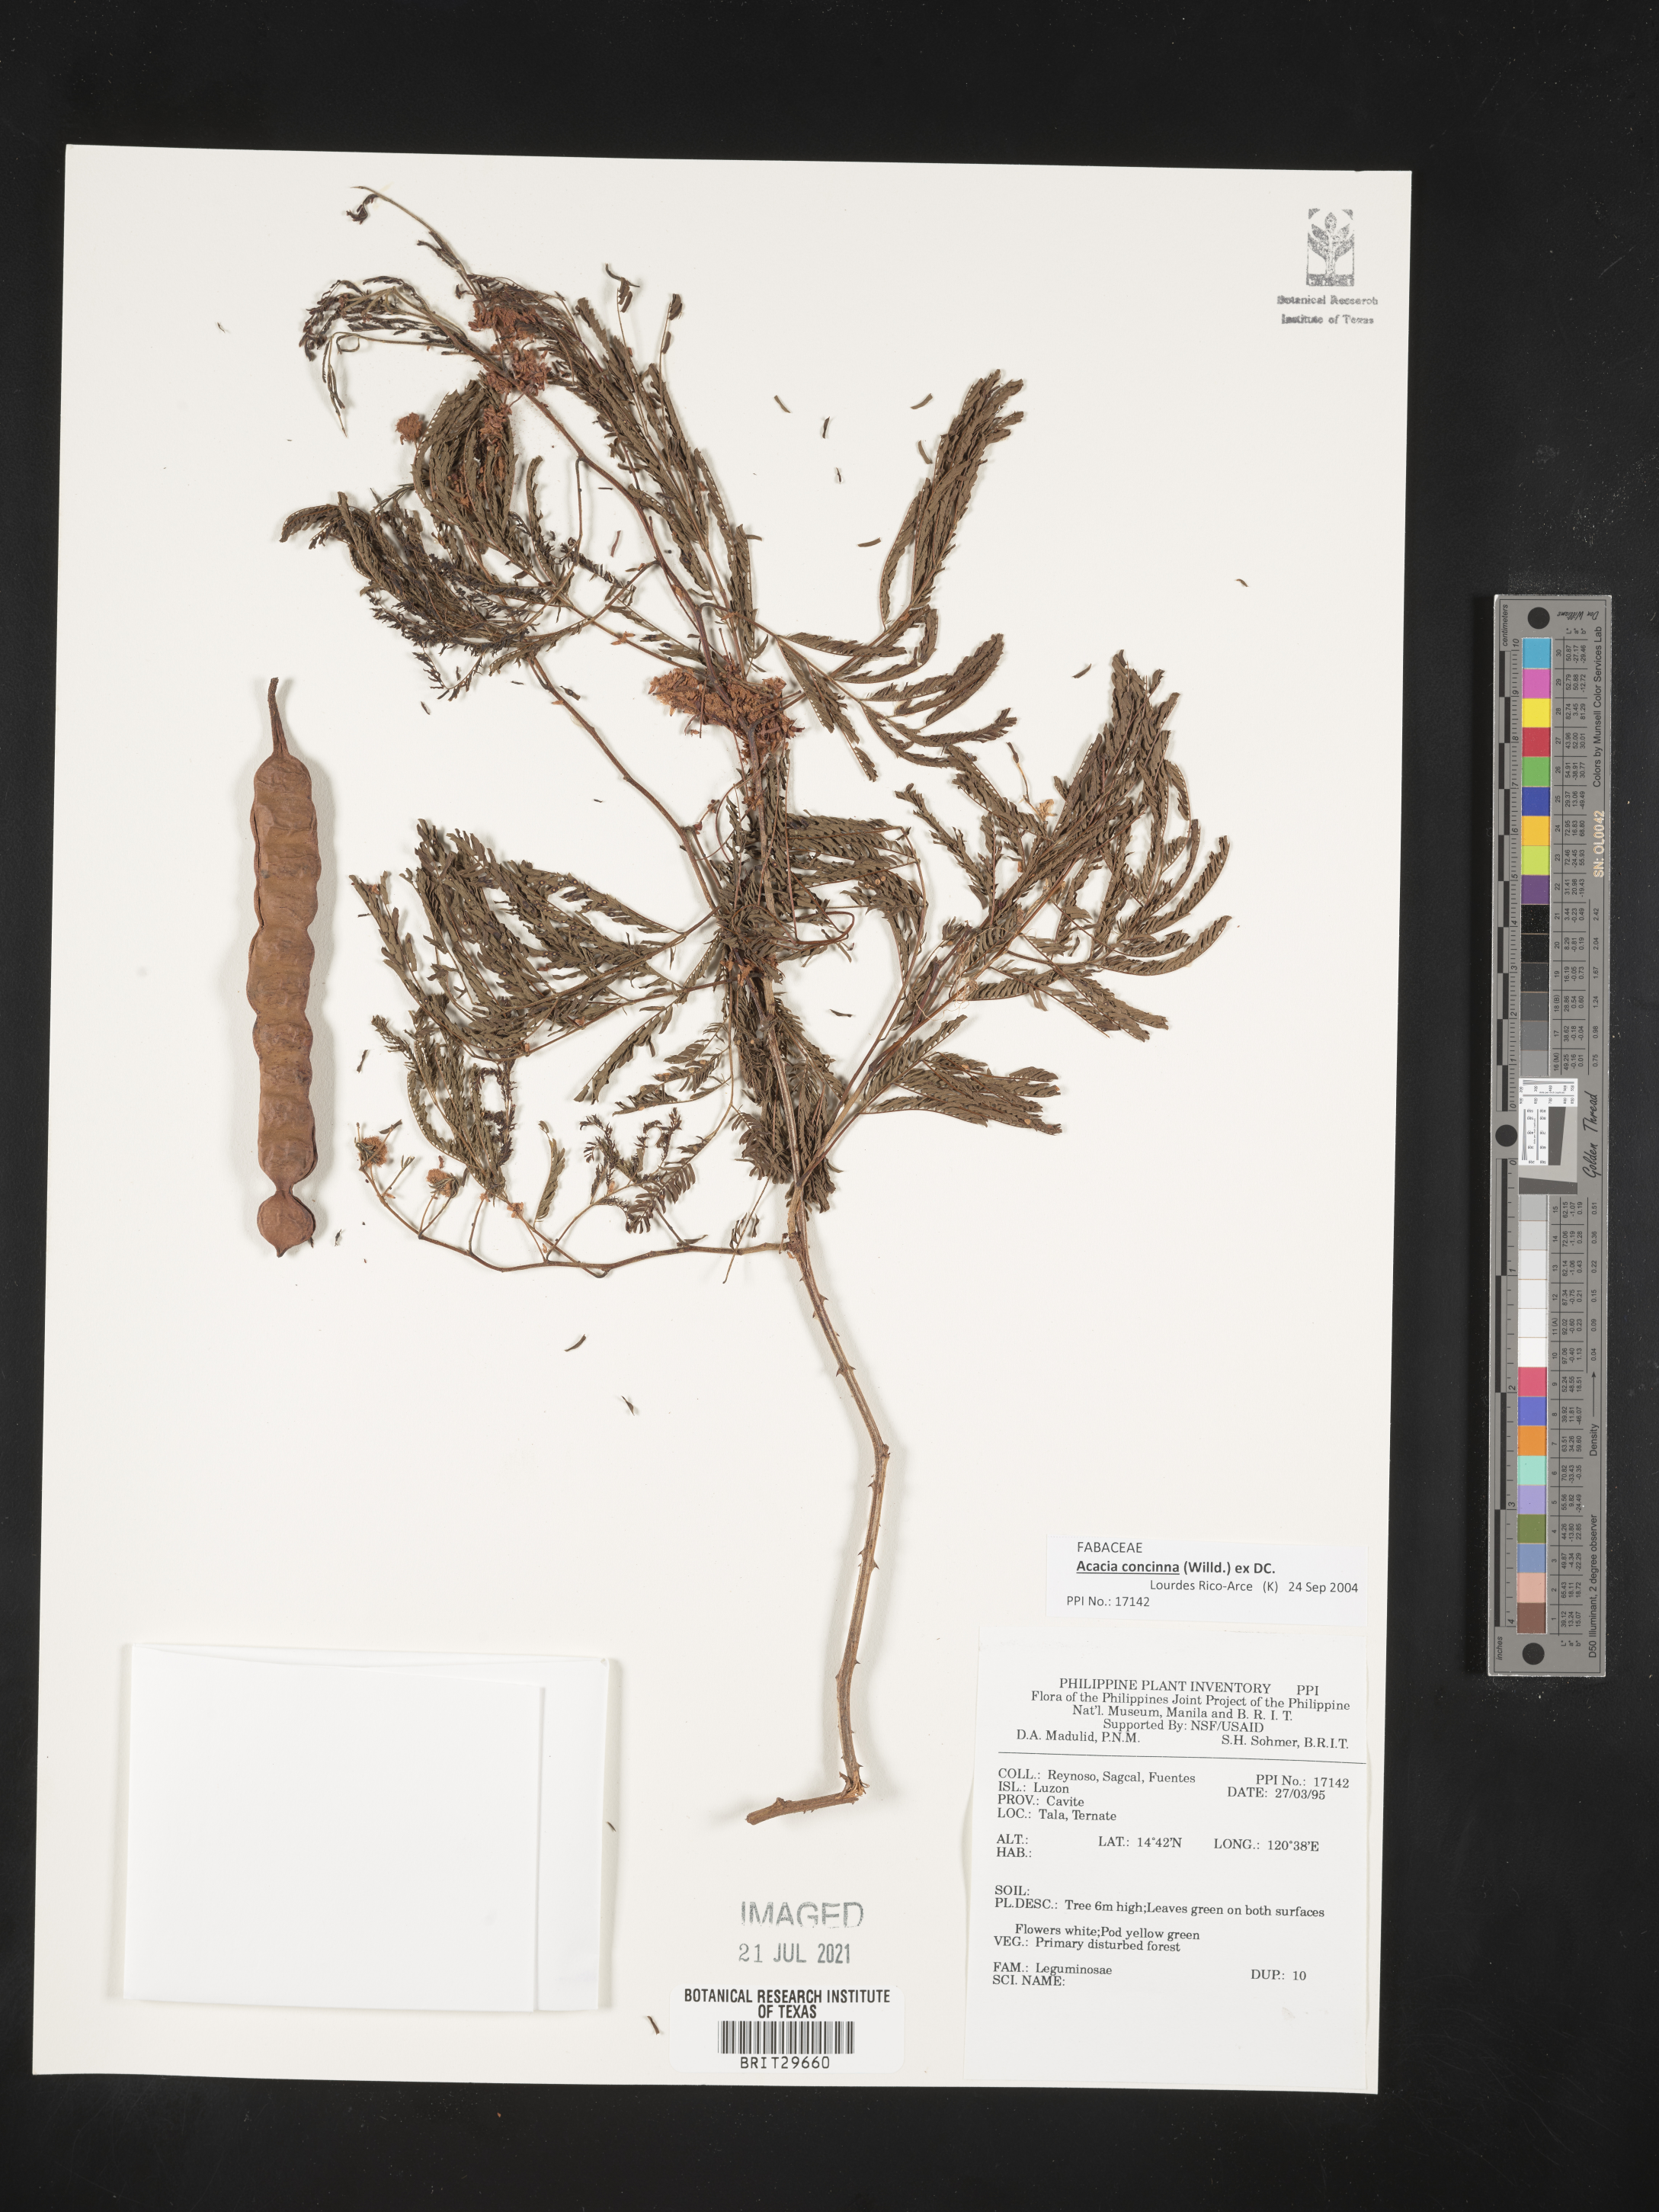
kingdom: Plantae
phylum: Tracheophyta
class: Magnoliopsida
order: Fabales
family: Fabaceae
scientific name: Fabaceae
